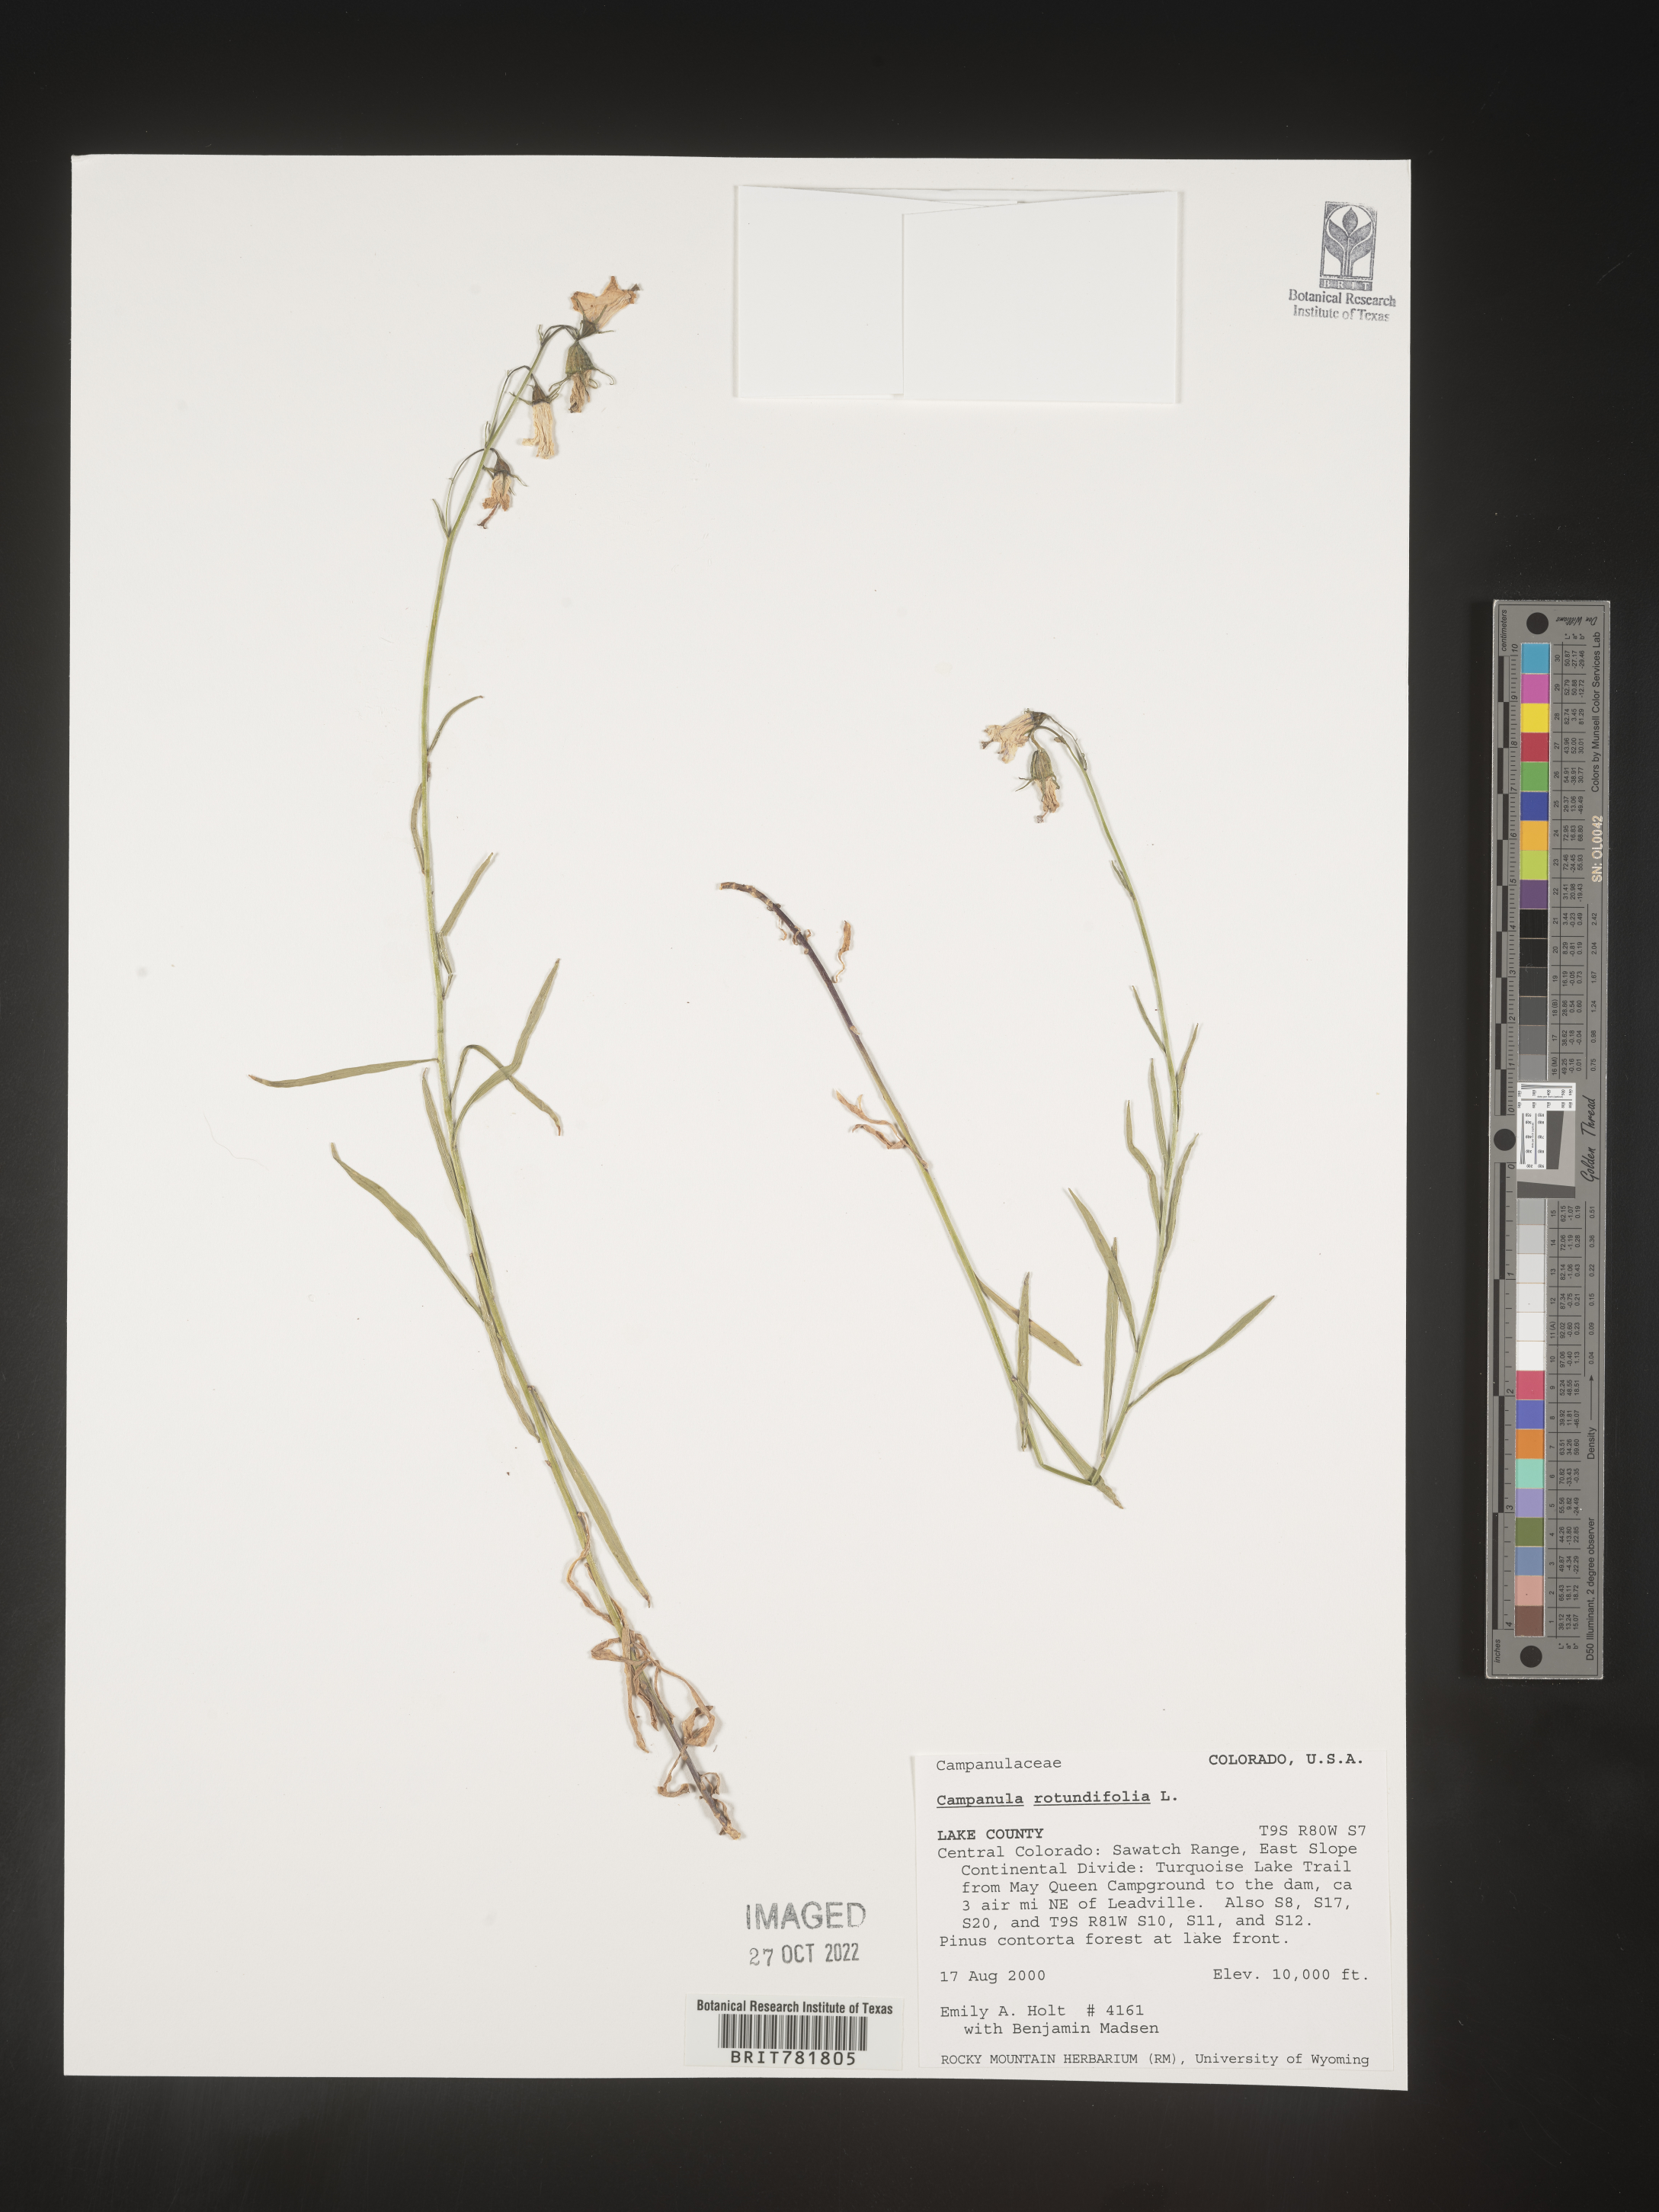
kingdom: Plantae
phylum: Tracheophyta
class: Magnoliopsida
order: Asterales
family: Campanulaceae
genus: Campanula
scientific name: Campanula rotundifolia
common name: Harebell
